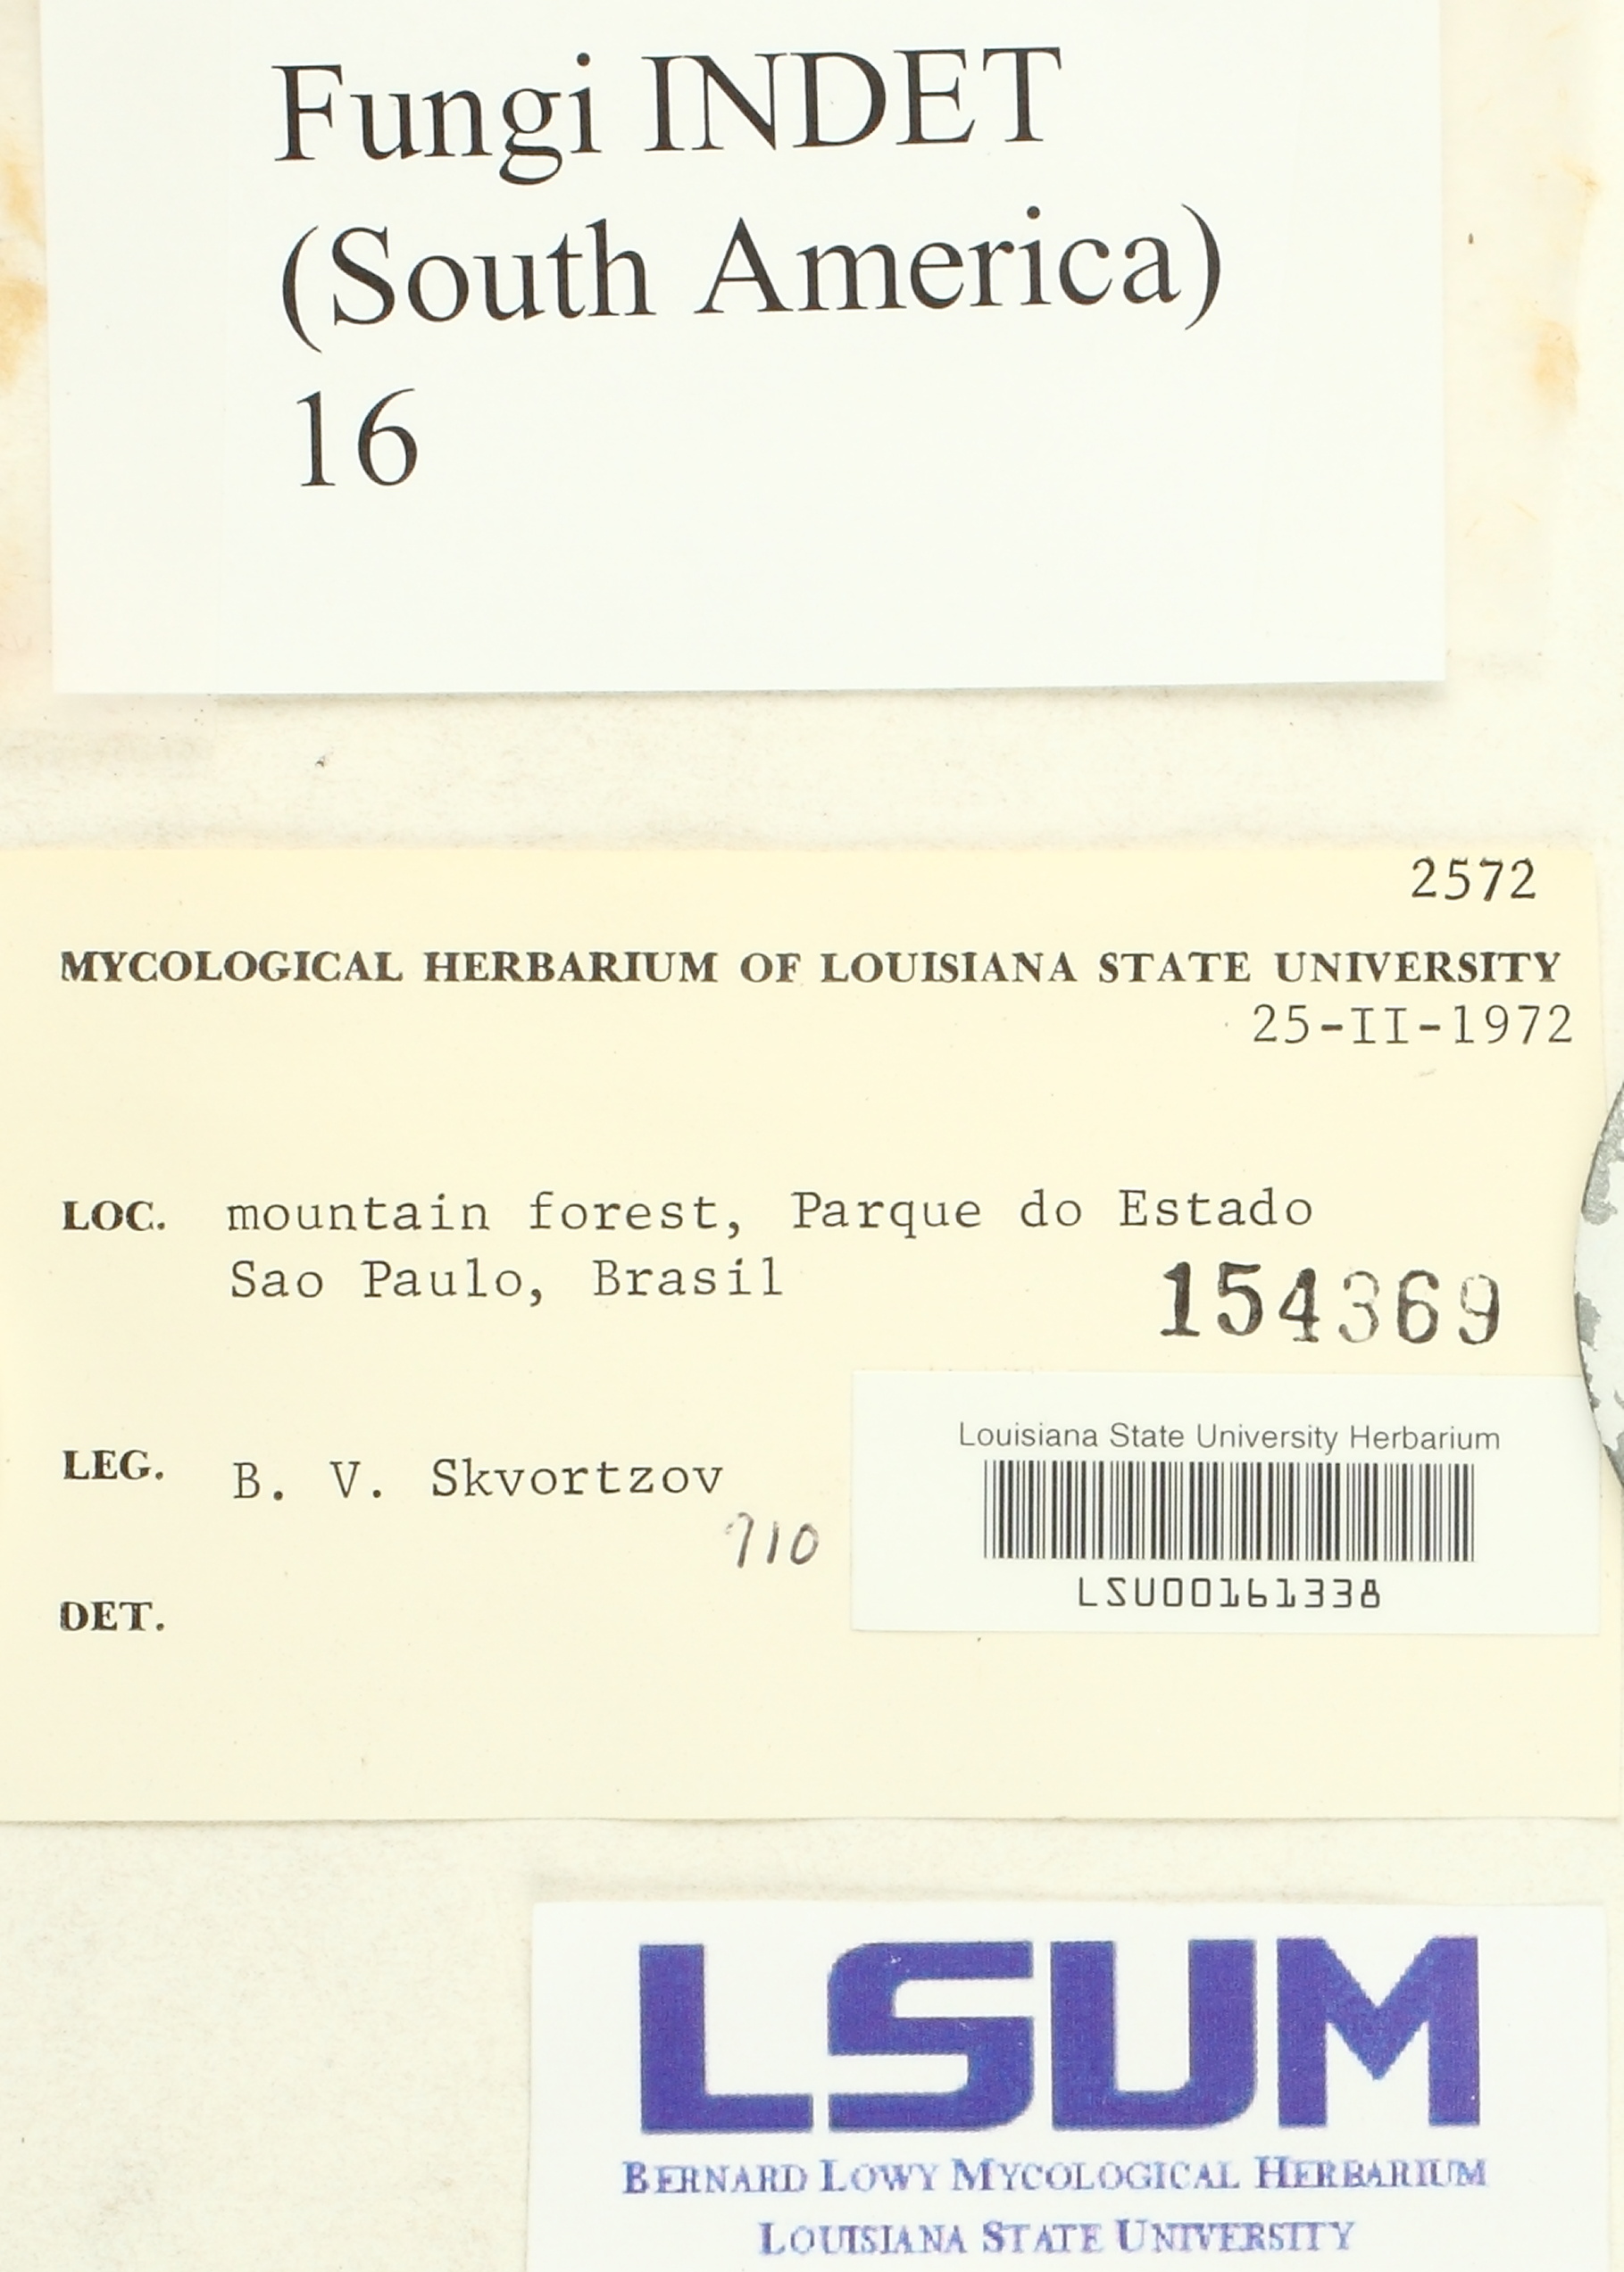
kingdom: Fungi
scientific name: Fungi
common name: Fungi
